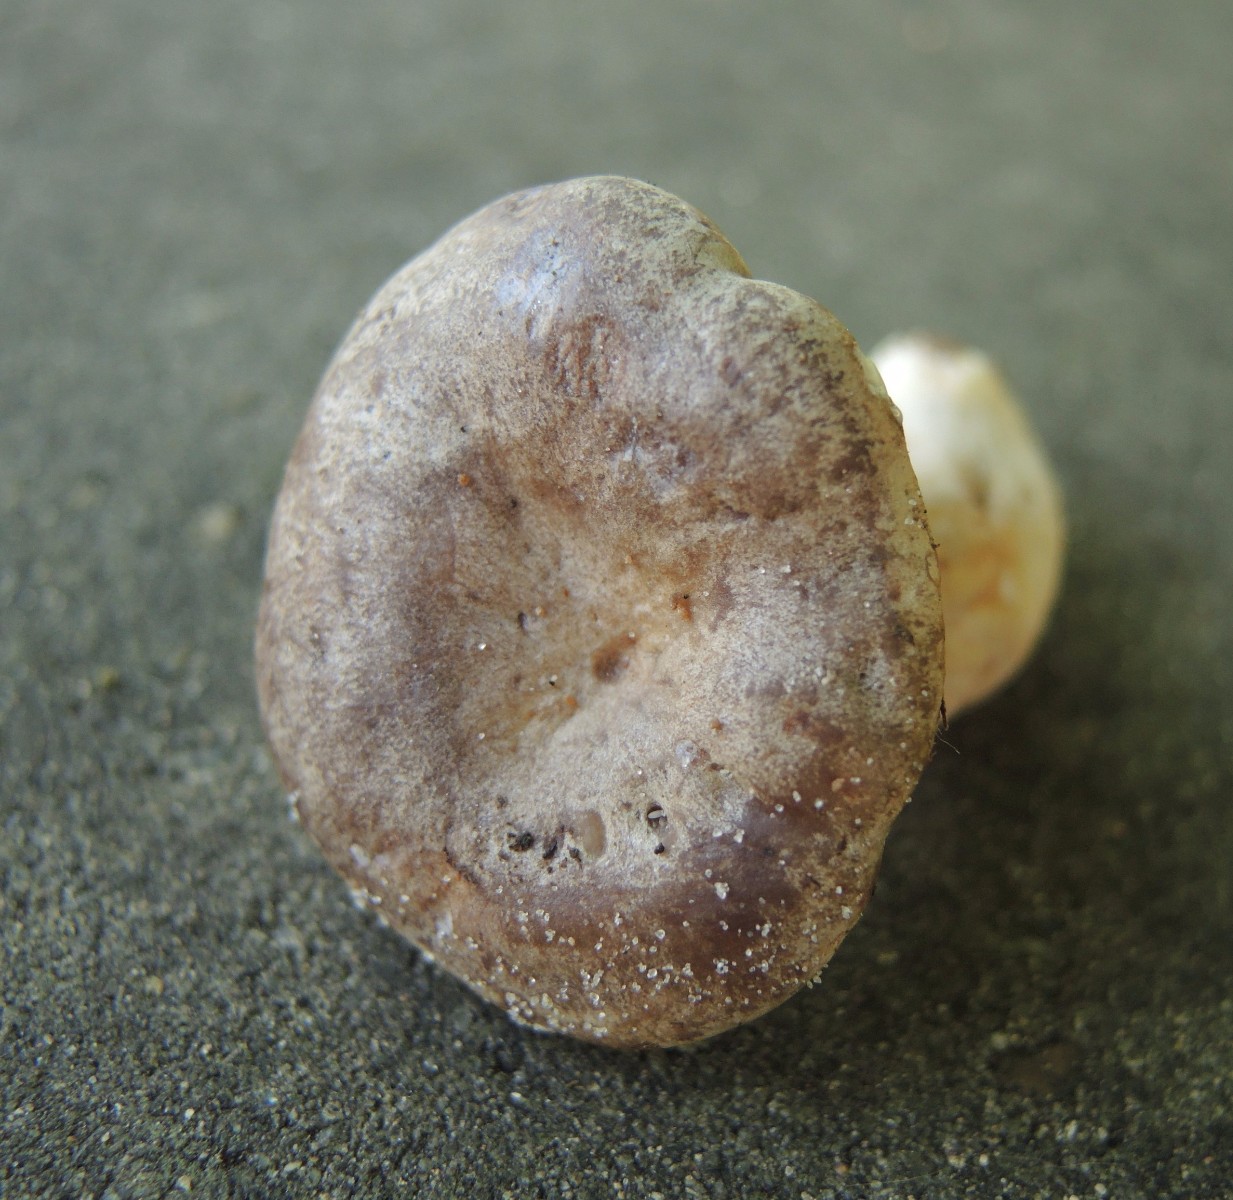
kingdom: Fungi
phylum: Basidiomycota
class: Agaricomycetes
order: Russulales
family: Russulaceae
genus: Lactarius
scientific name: Lactarius circellatus
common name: avnbøg-mælkehat
